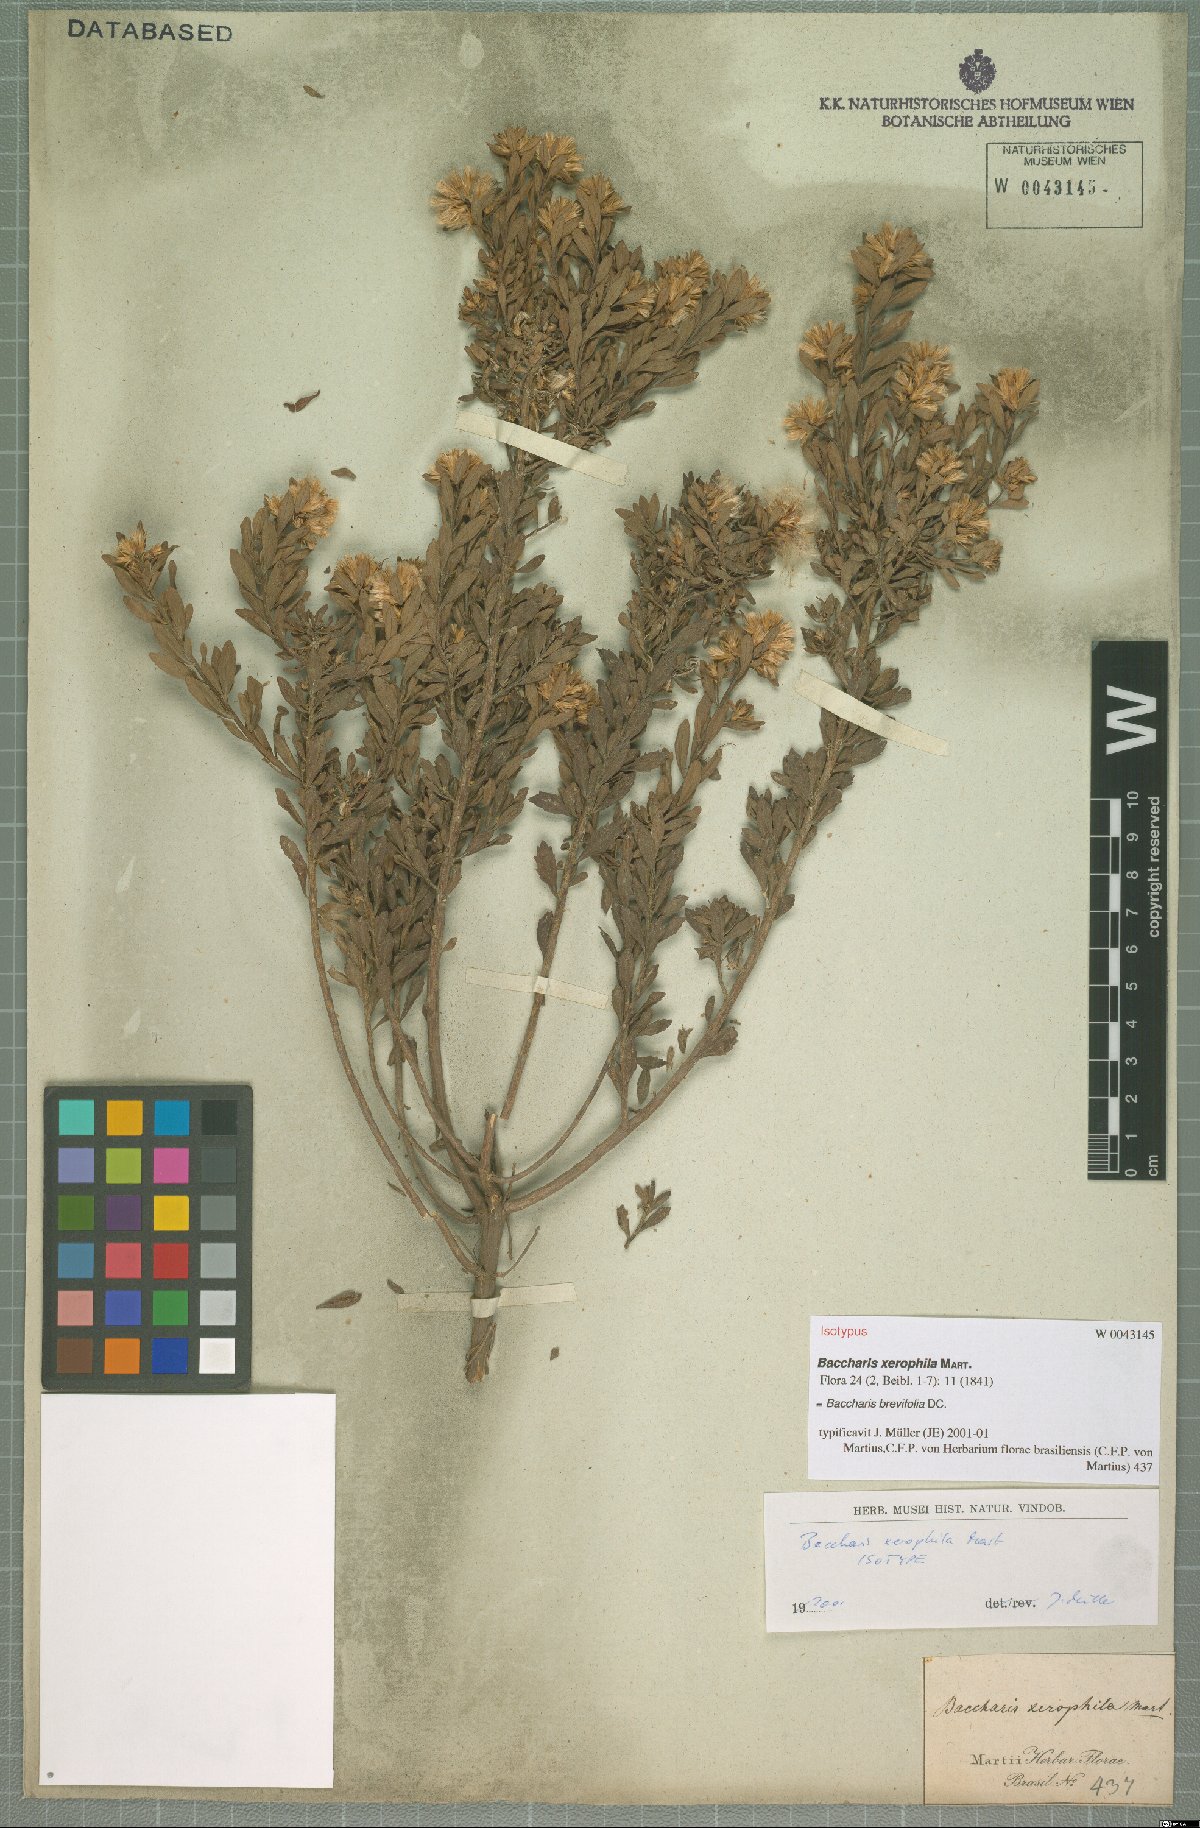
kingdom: Plantae
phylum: Tracheophyta
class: Magnoliopsida
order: Asterales
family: Asteraceae
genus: Baccharis
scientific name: Baccharis brevifolia
